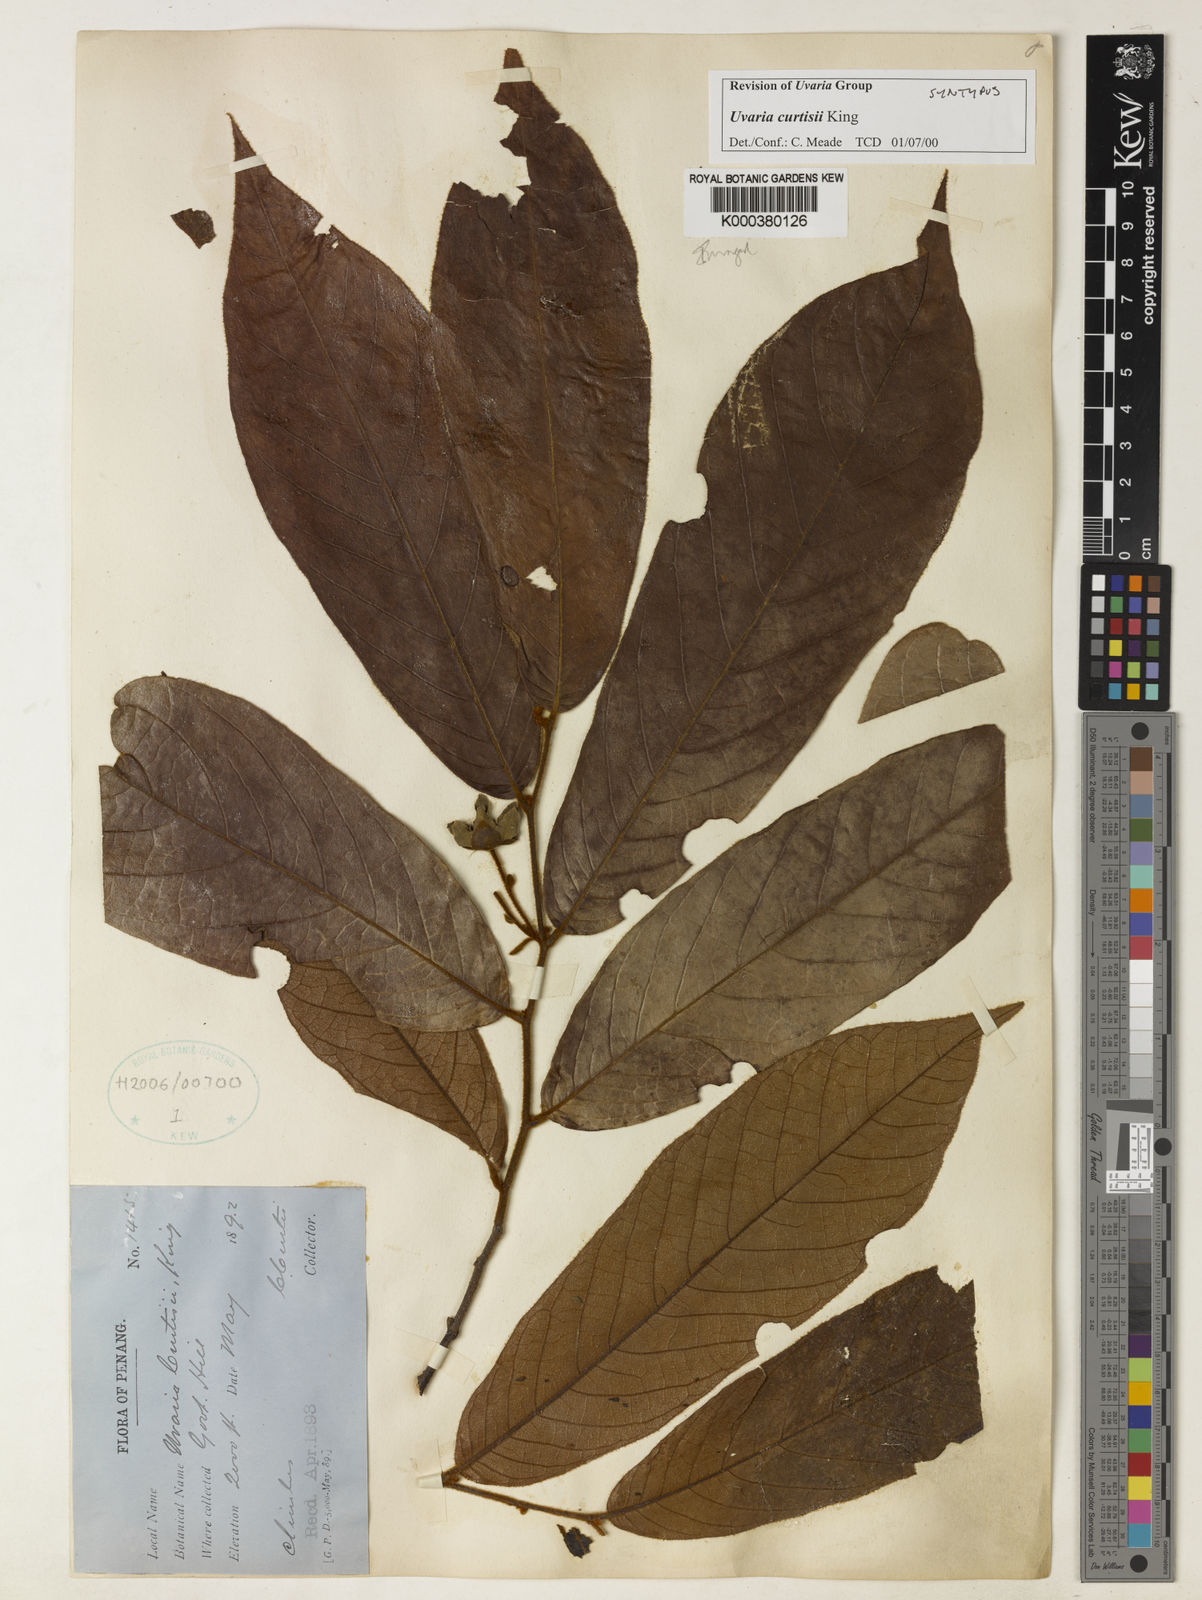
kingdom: Plantae
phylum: Tracheophyta
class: Magnoliopsida
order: Magnoliales
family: Annonaceae
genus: Uvaria
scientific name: Uvaria curtisii
